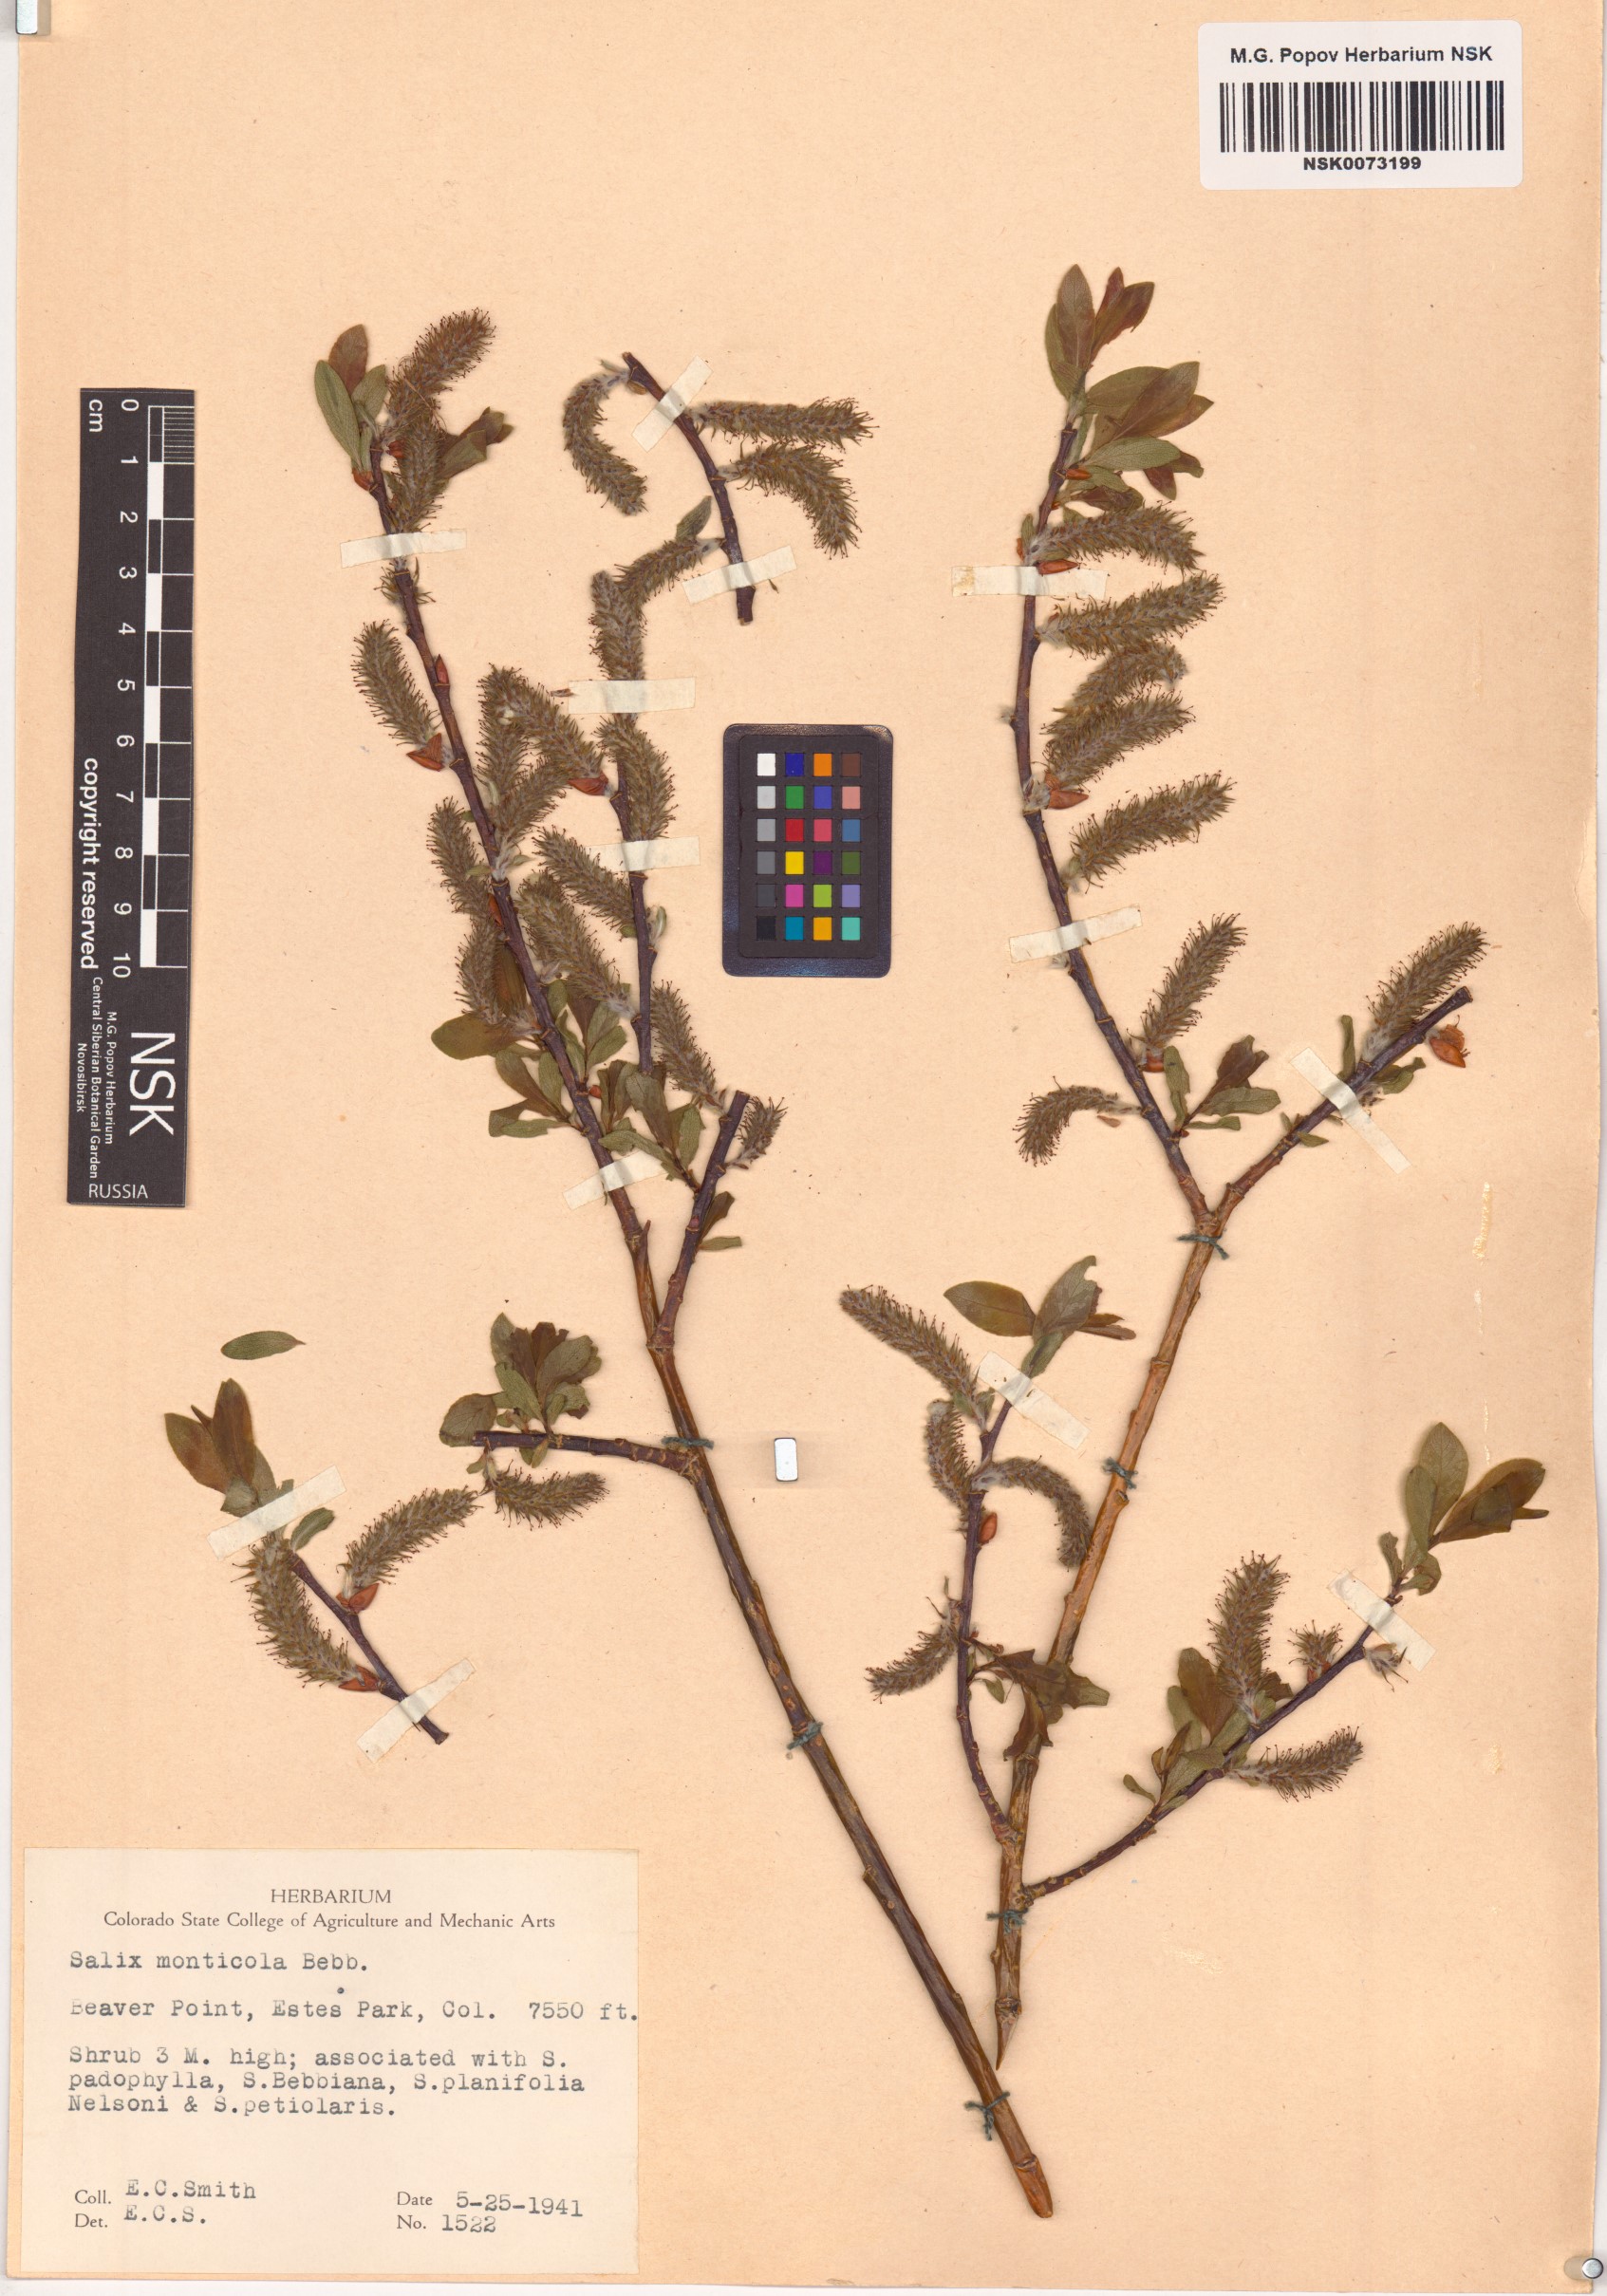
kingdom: Plantae
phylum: Tracheophyta
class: Magnoliopsida
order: Malpighiales
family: Salicaceae
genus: Salix
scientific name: Salix monticola
